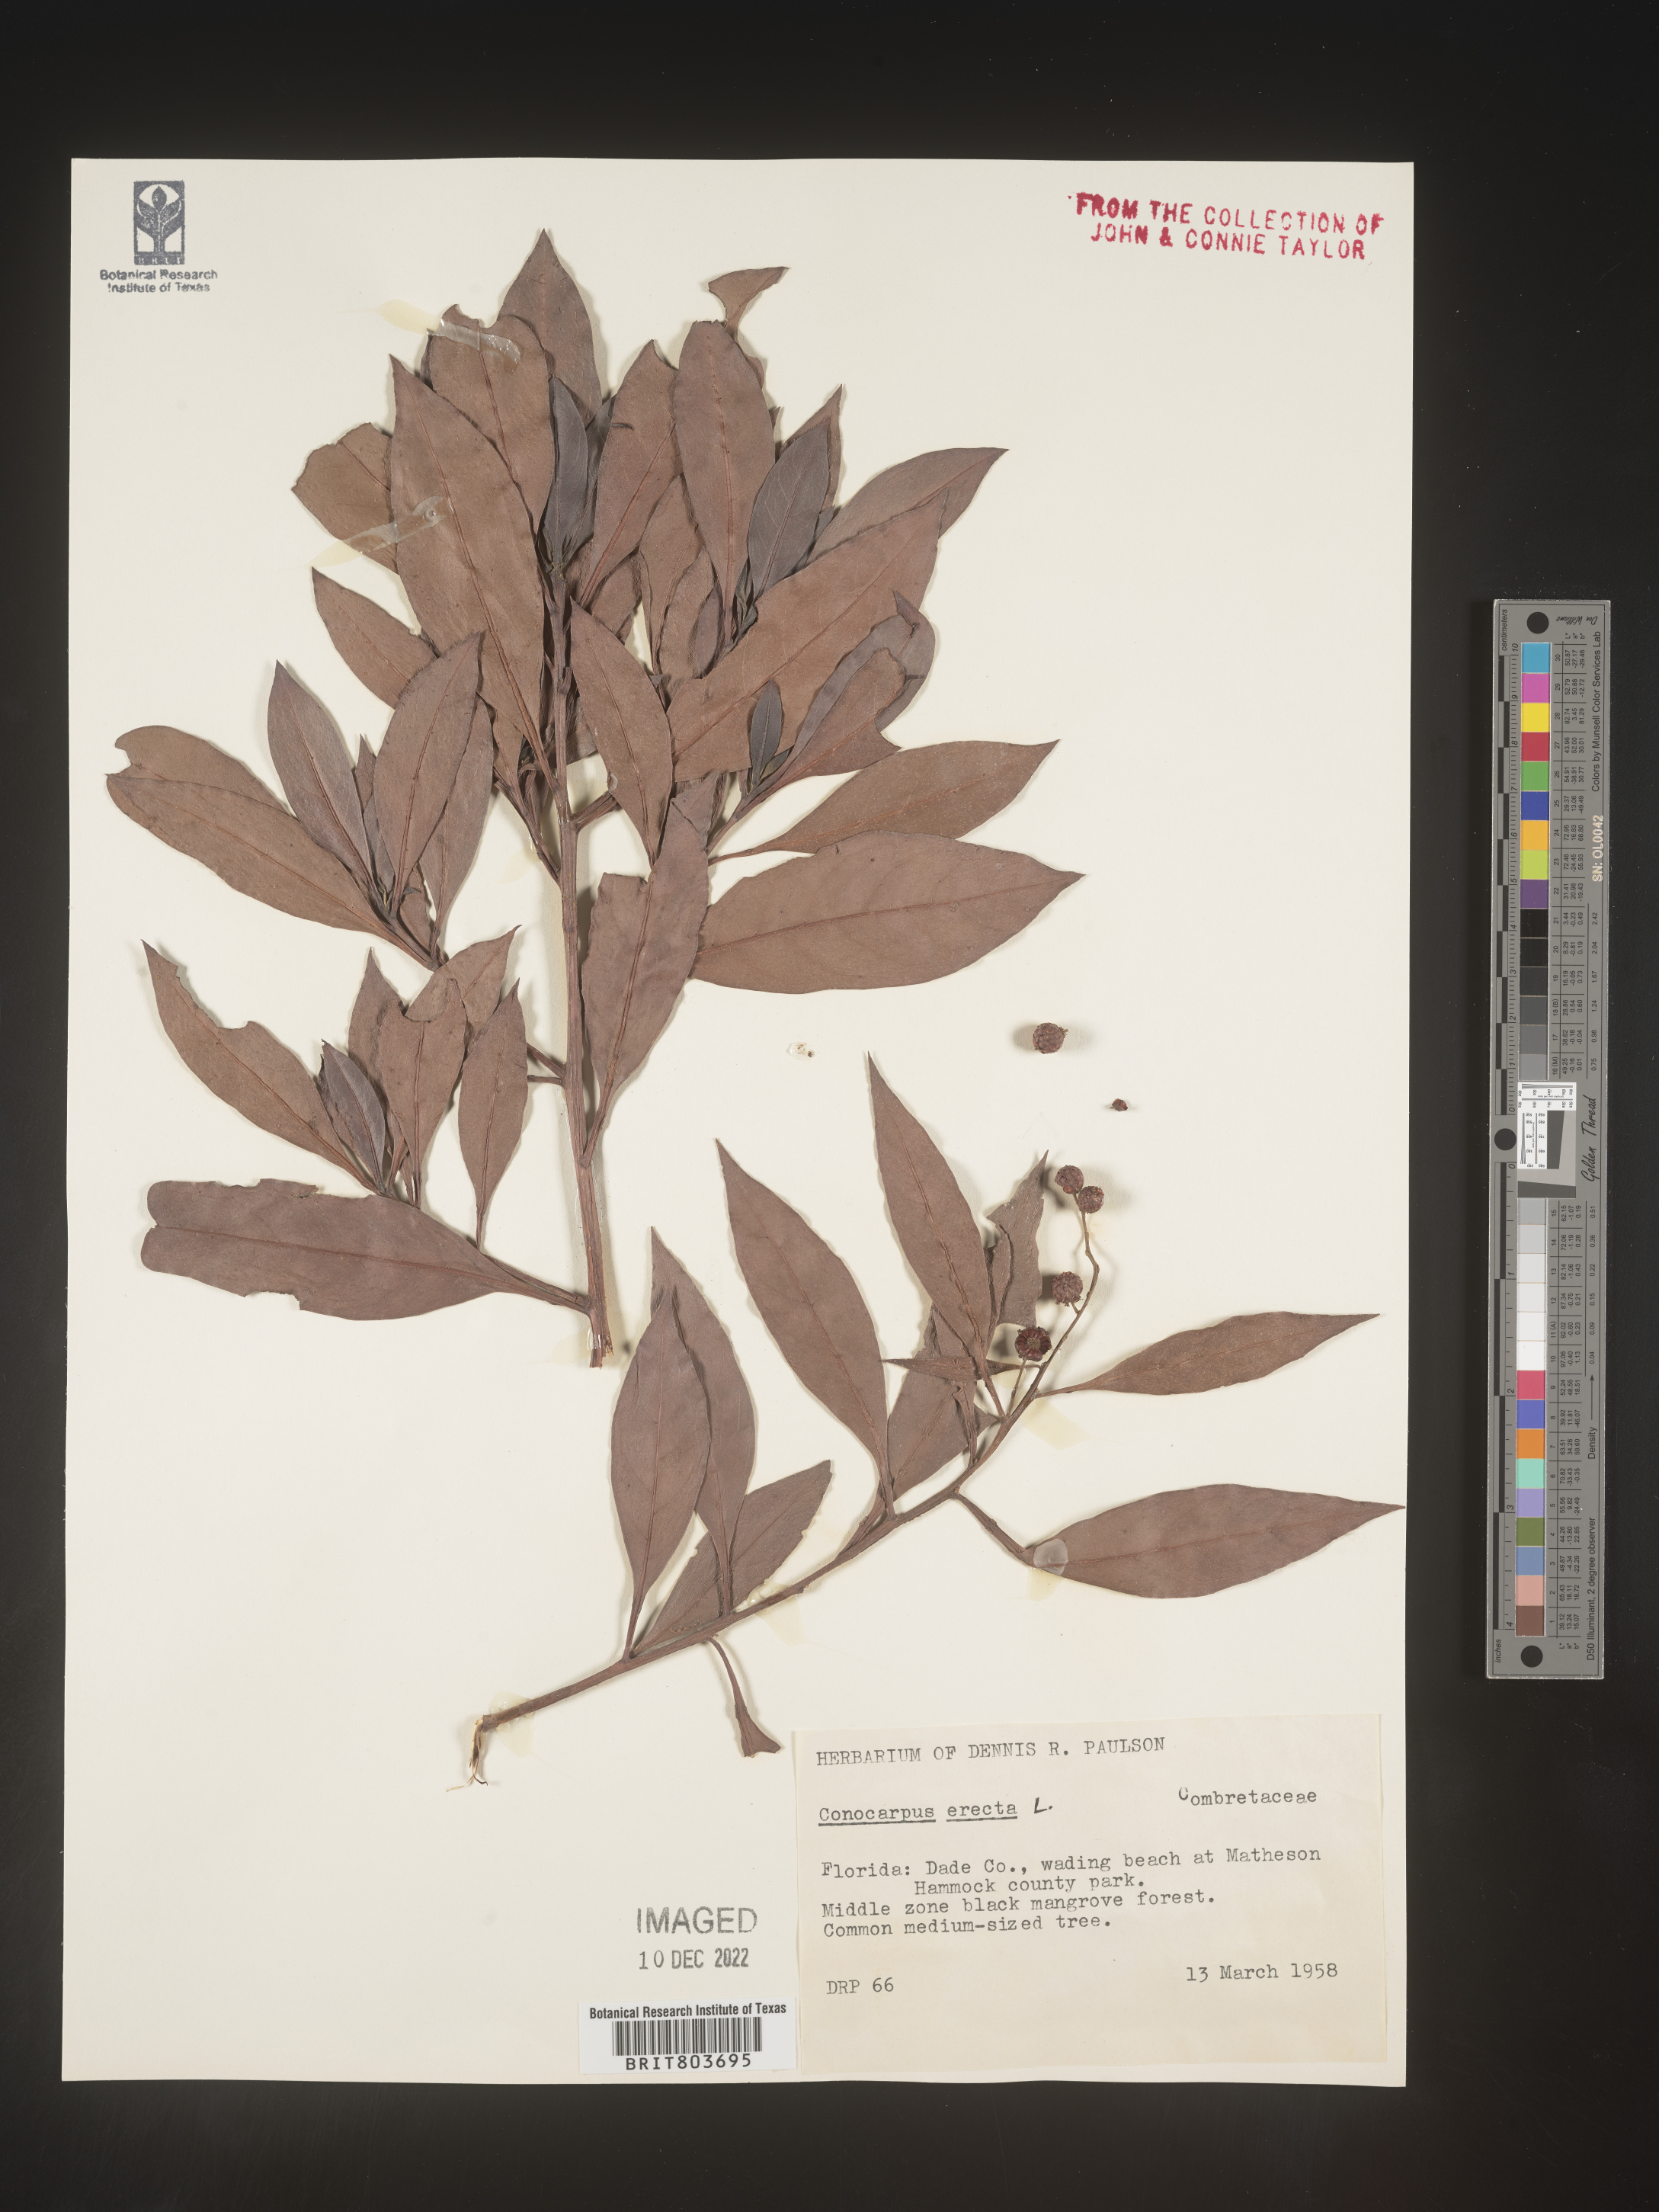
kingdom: Plantae
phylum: Tracheophyta
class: Magnoliopsida
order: Myrtales
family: Combretaceae
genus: Conocarpus
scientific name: Conocarpus erectus
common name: Button mangrove
